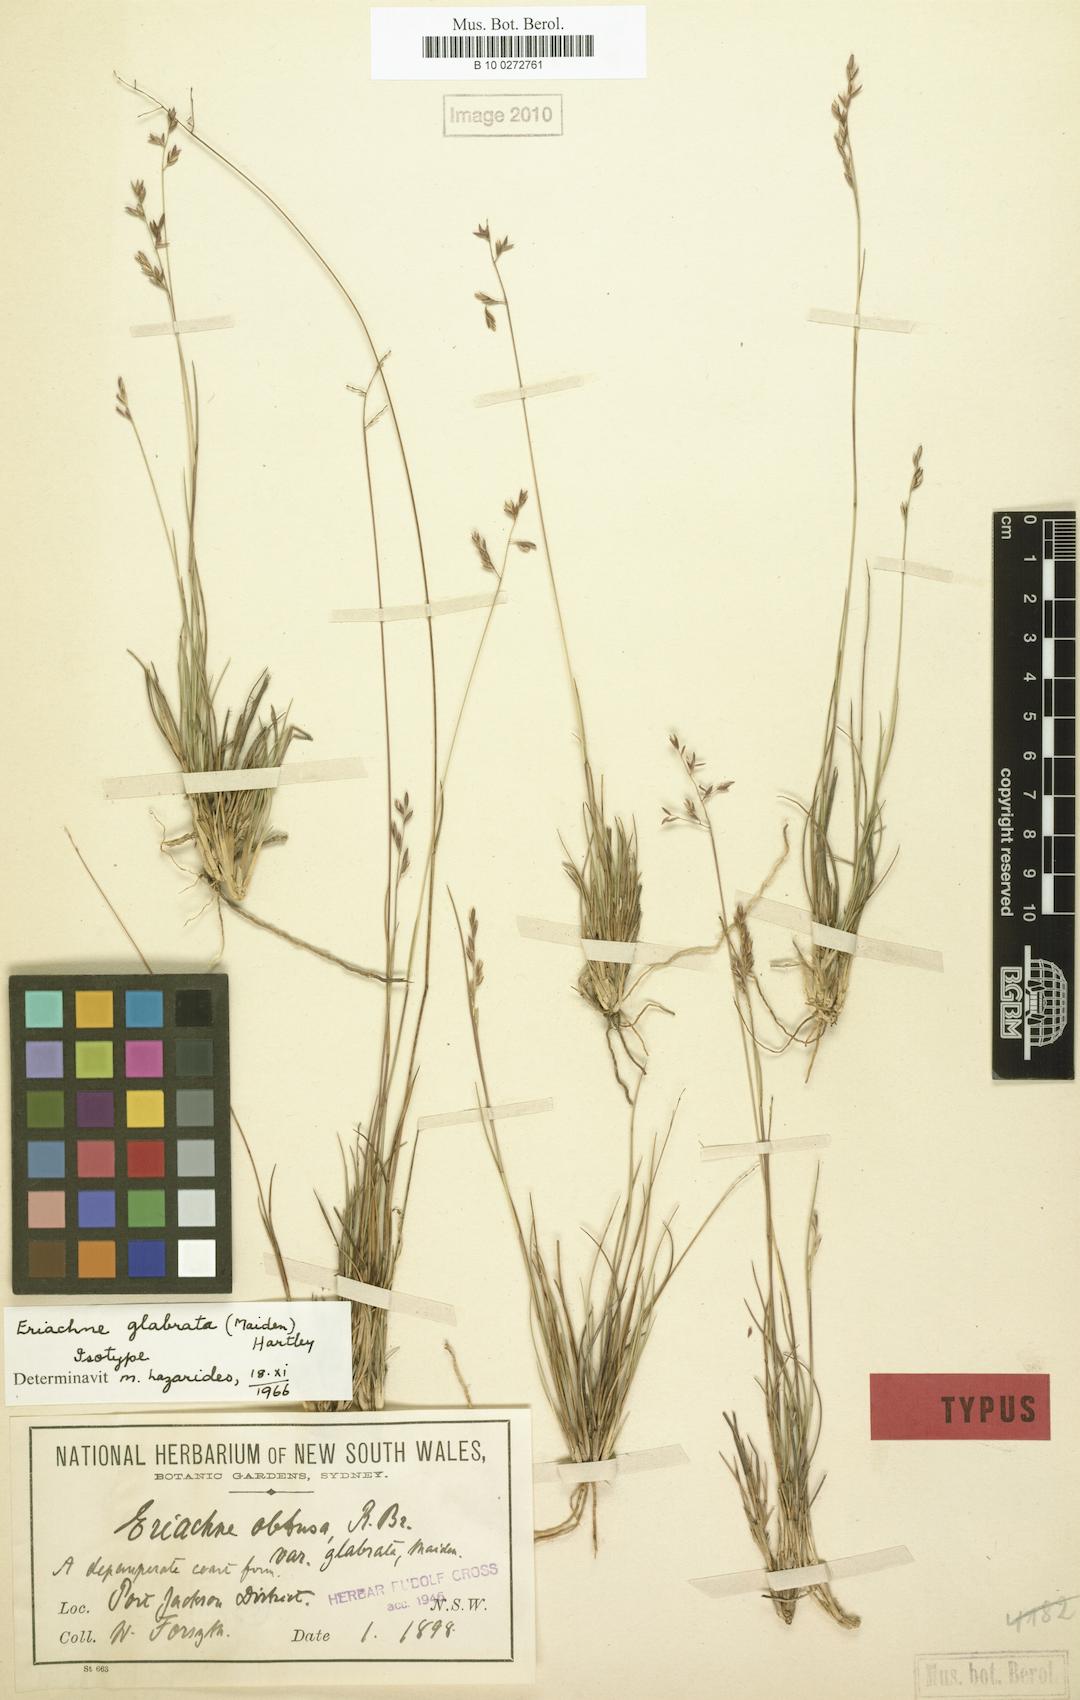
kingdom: Plantae
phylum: Tracheophyta
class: Liliopsida
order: Poales
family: Poaceae
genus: Eriachne
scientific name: Eriachne glabrata
